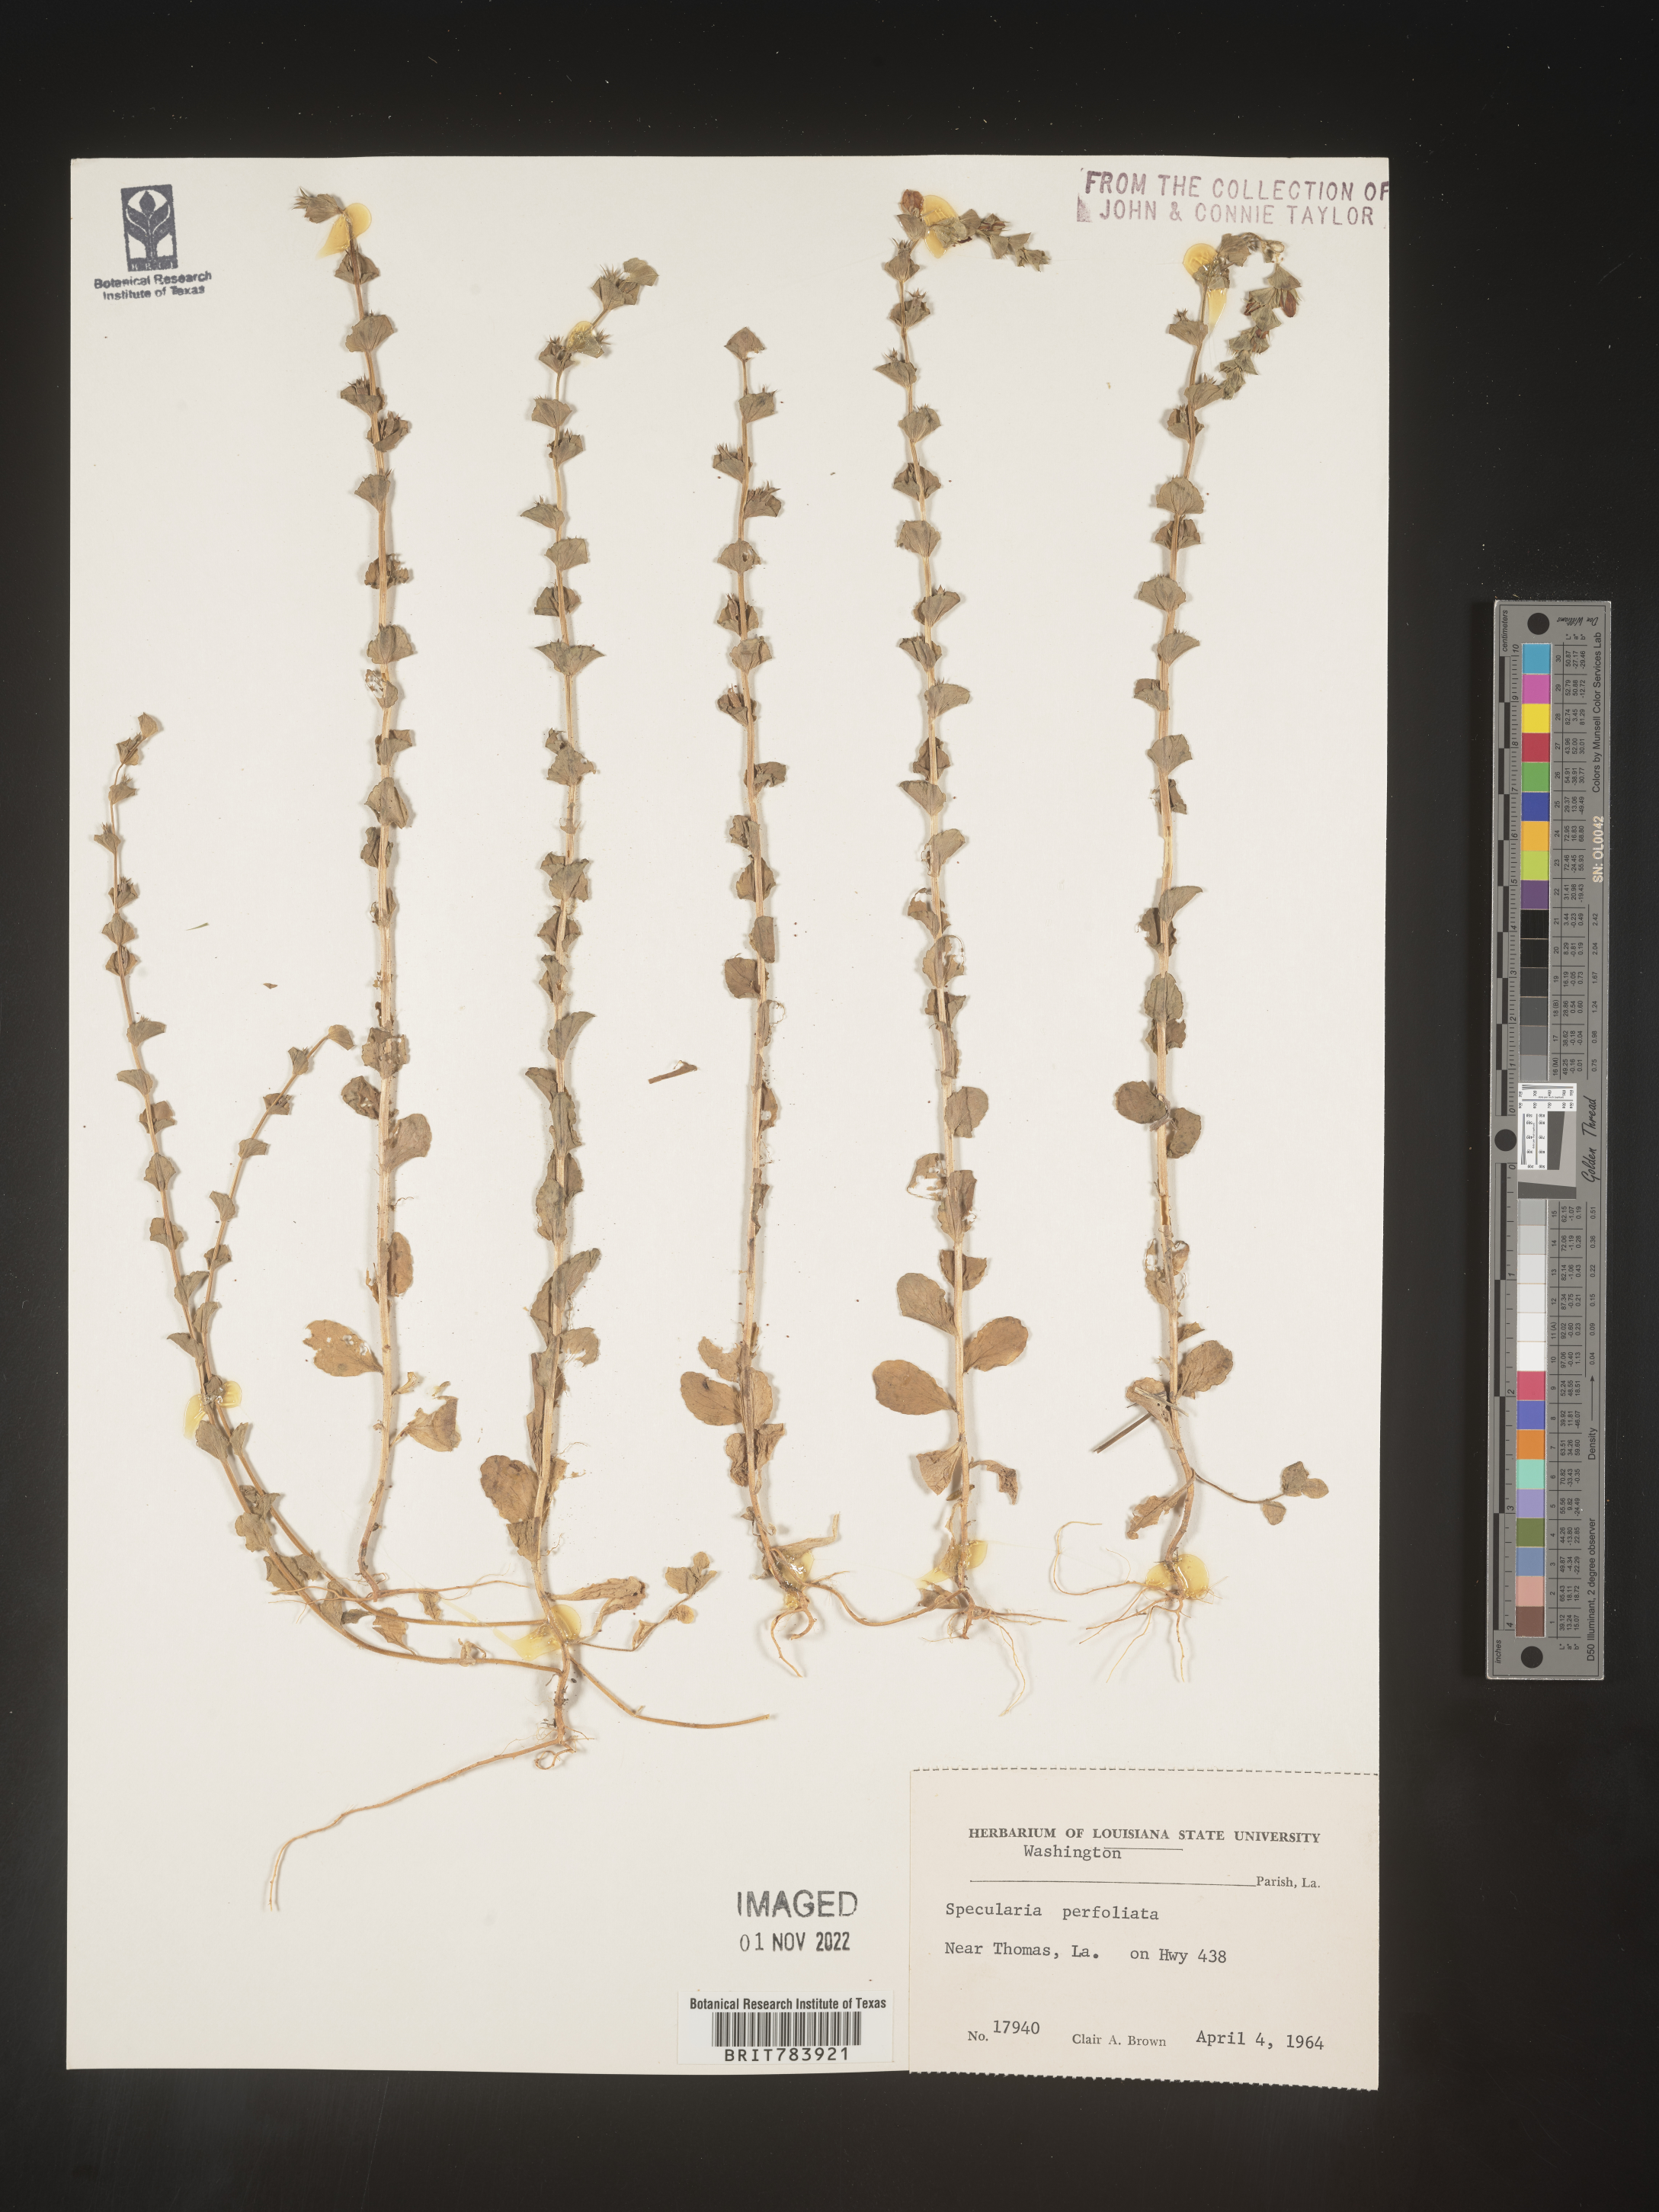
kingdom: Plantae
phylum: Tracheophyta
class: Magnoliopsida
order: Asterales
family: Campanulaceae
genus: Triodanis
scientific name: Triodanis perfoliata
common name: Clasping venus' looking-glass
